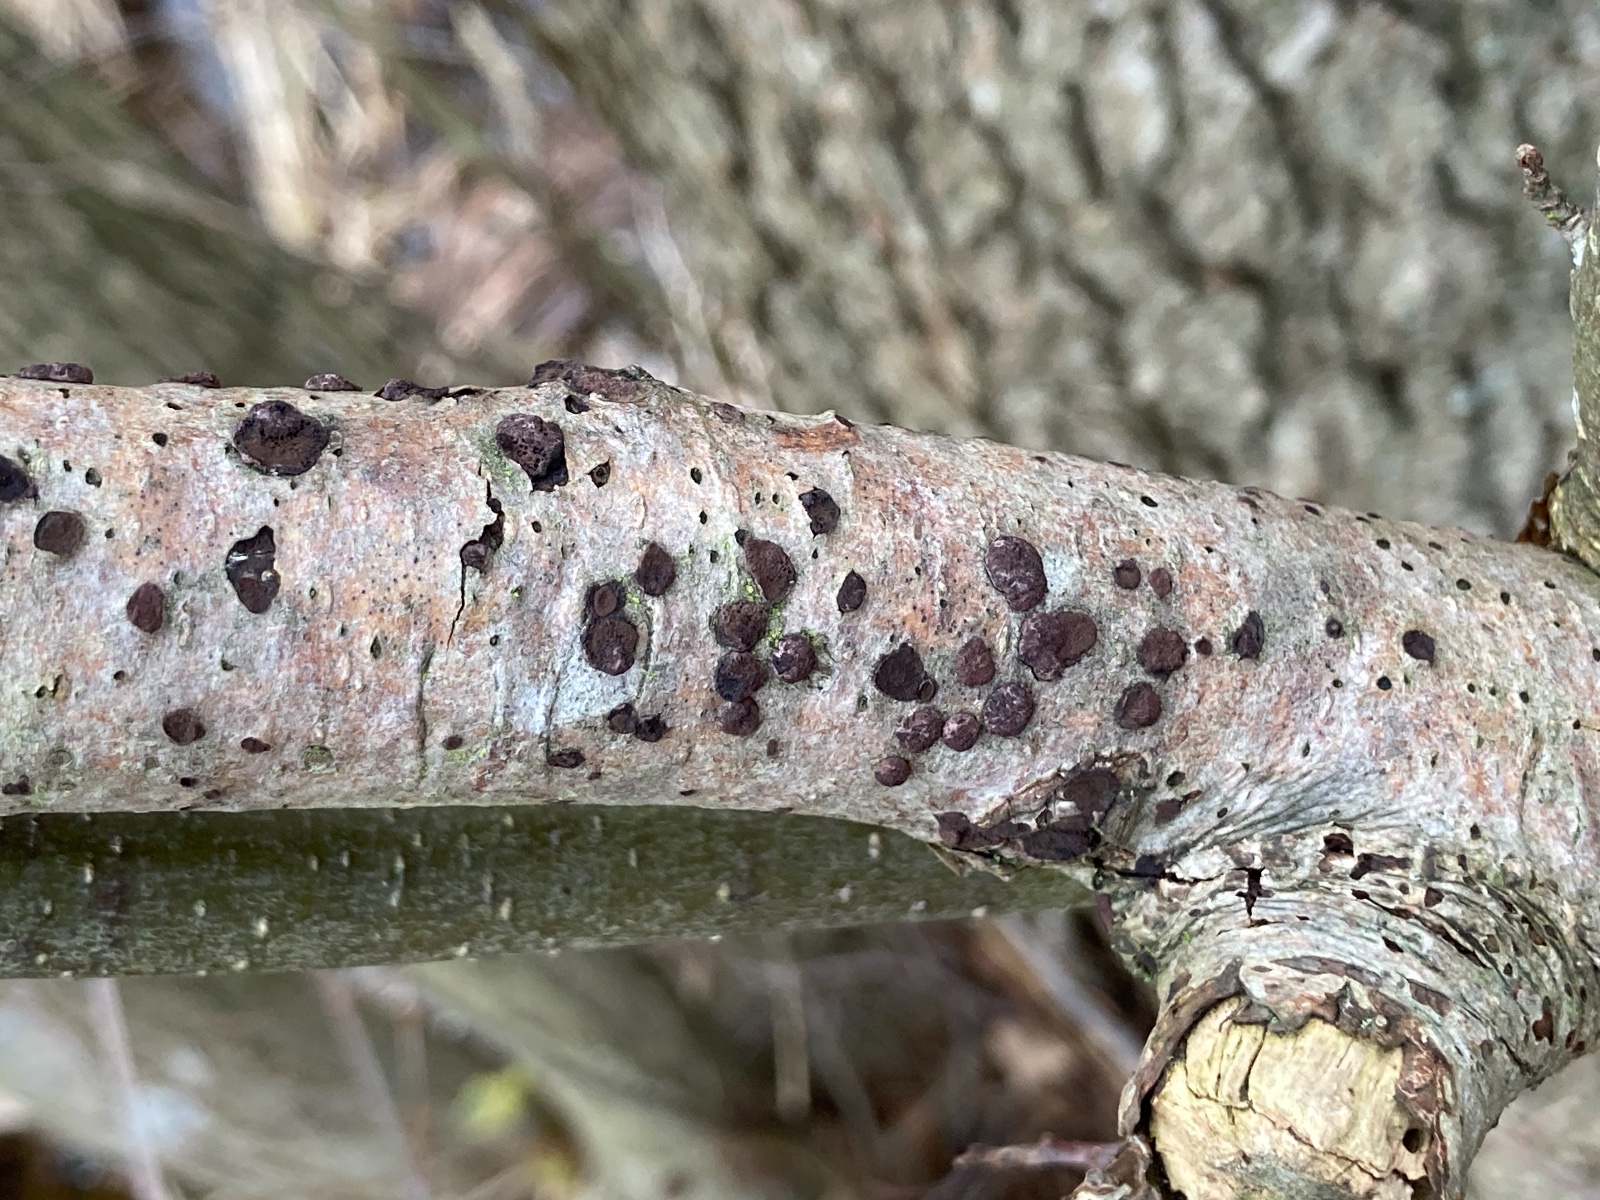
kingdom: Fungi
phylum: Ascomycota
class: Sordariomycetes
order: Xylariales
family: Hypoxylaceae
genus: Hypoxylon
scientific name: Hypoxylon fuscoides
